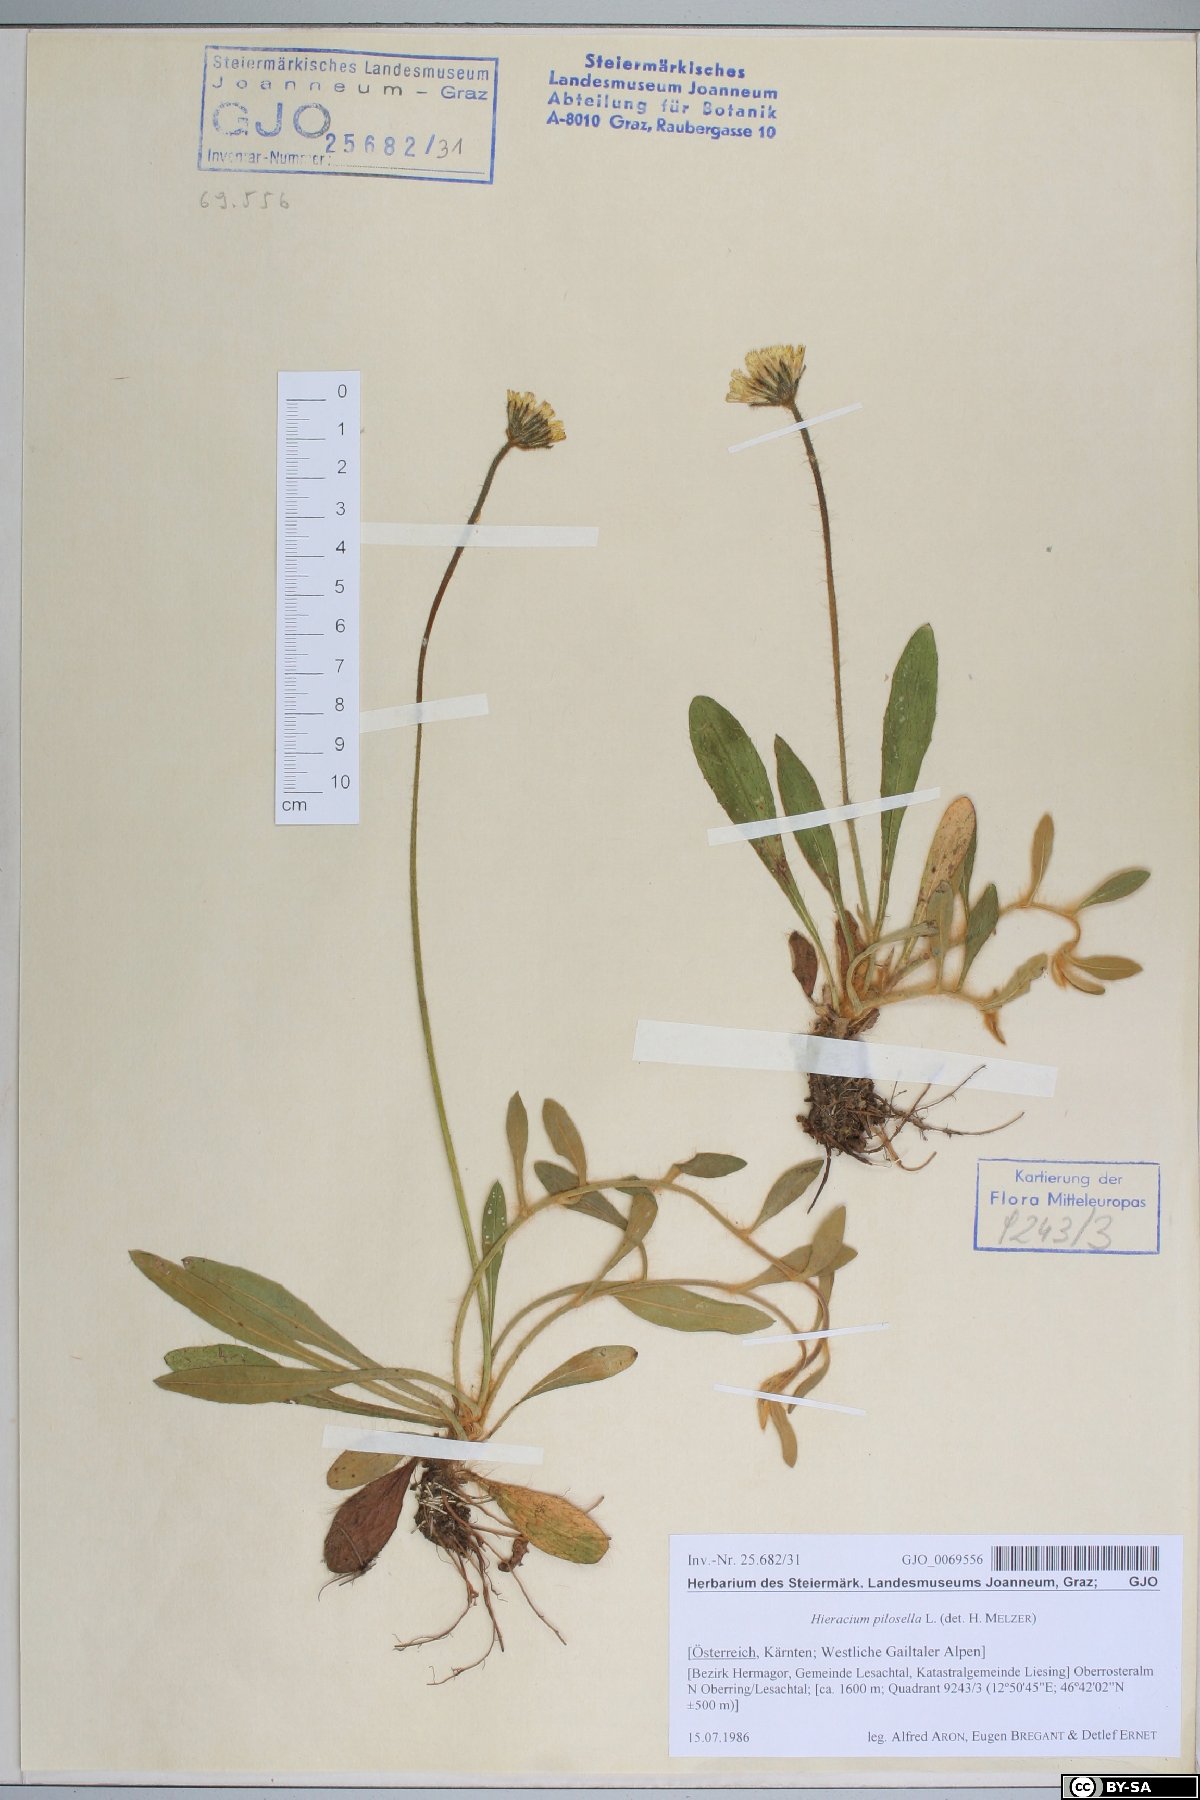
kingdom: Plantae
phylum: Tracheophyta
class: Magnoliopsida
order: Asterales
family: Asteraceae
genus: Pilosella
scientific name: Pilosella officinarum
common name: Mouse-ear hawkweed
